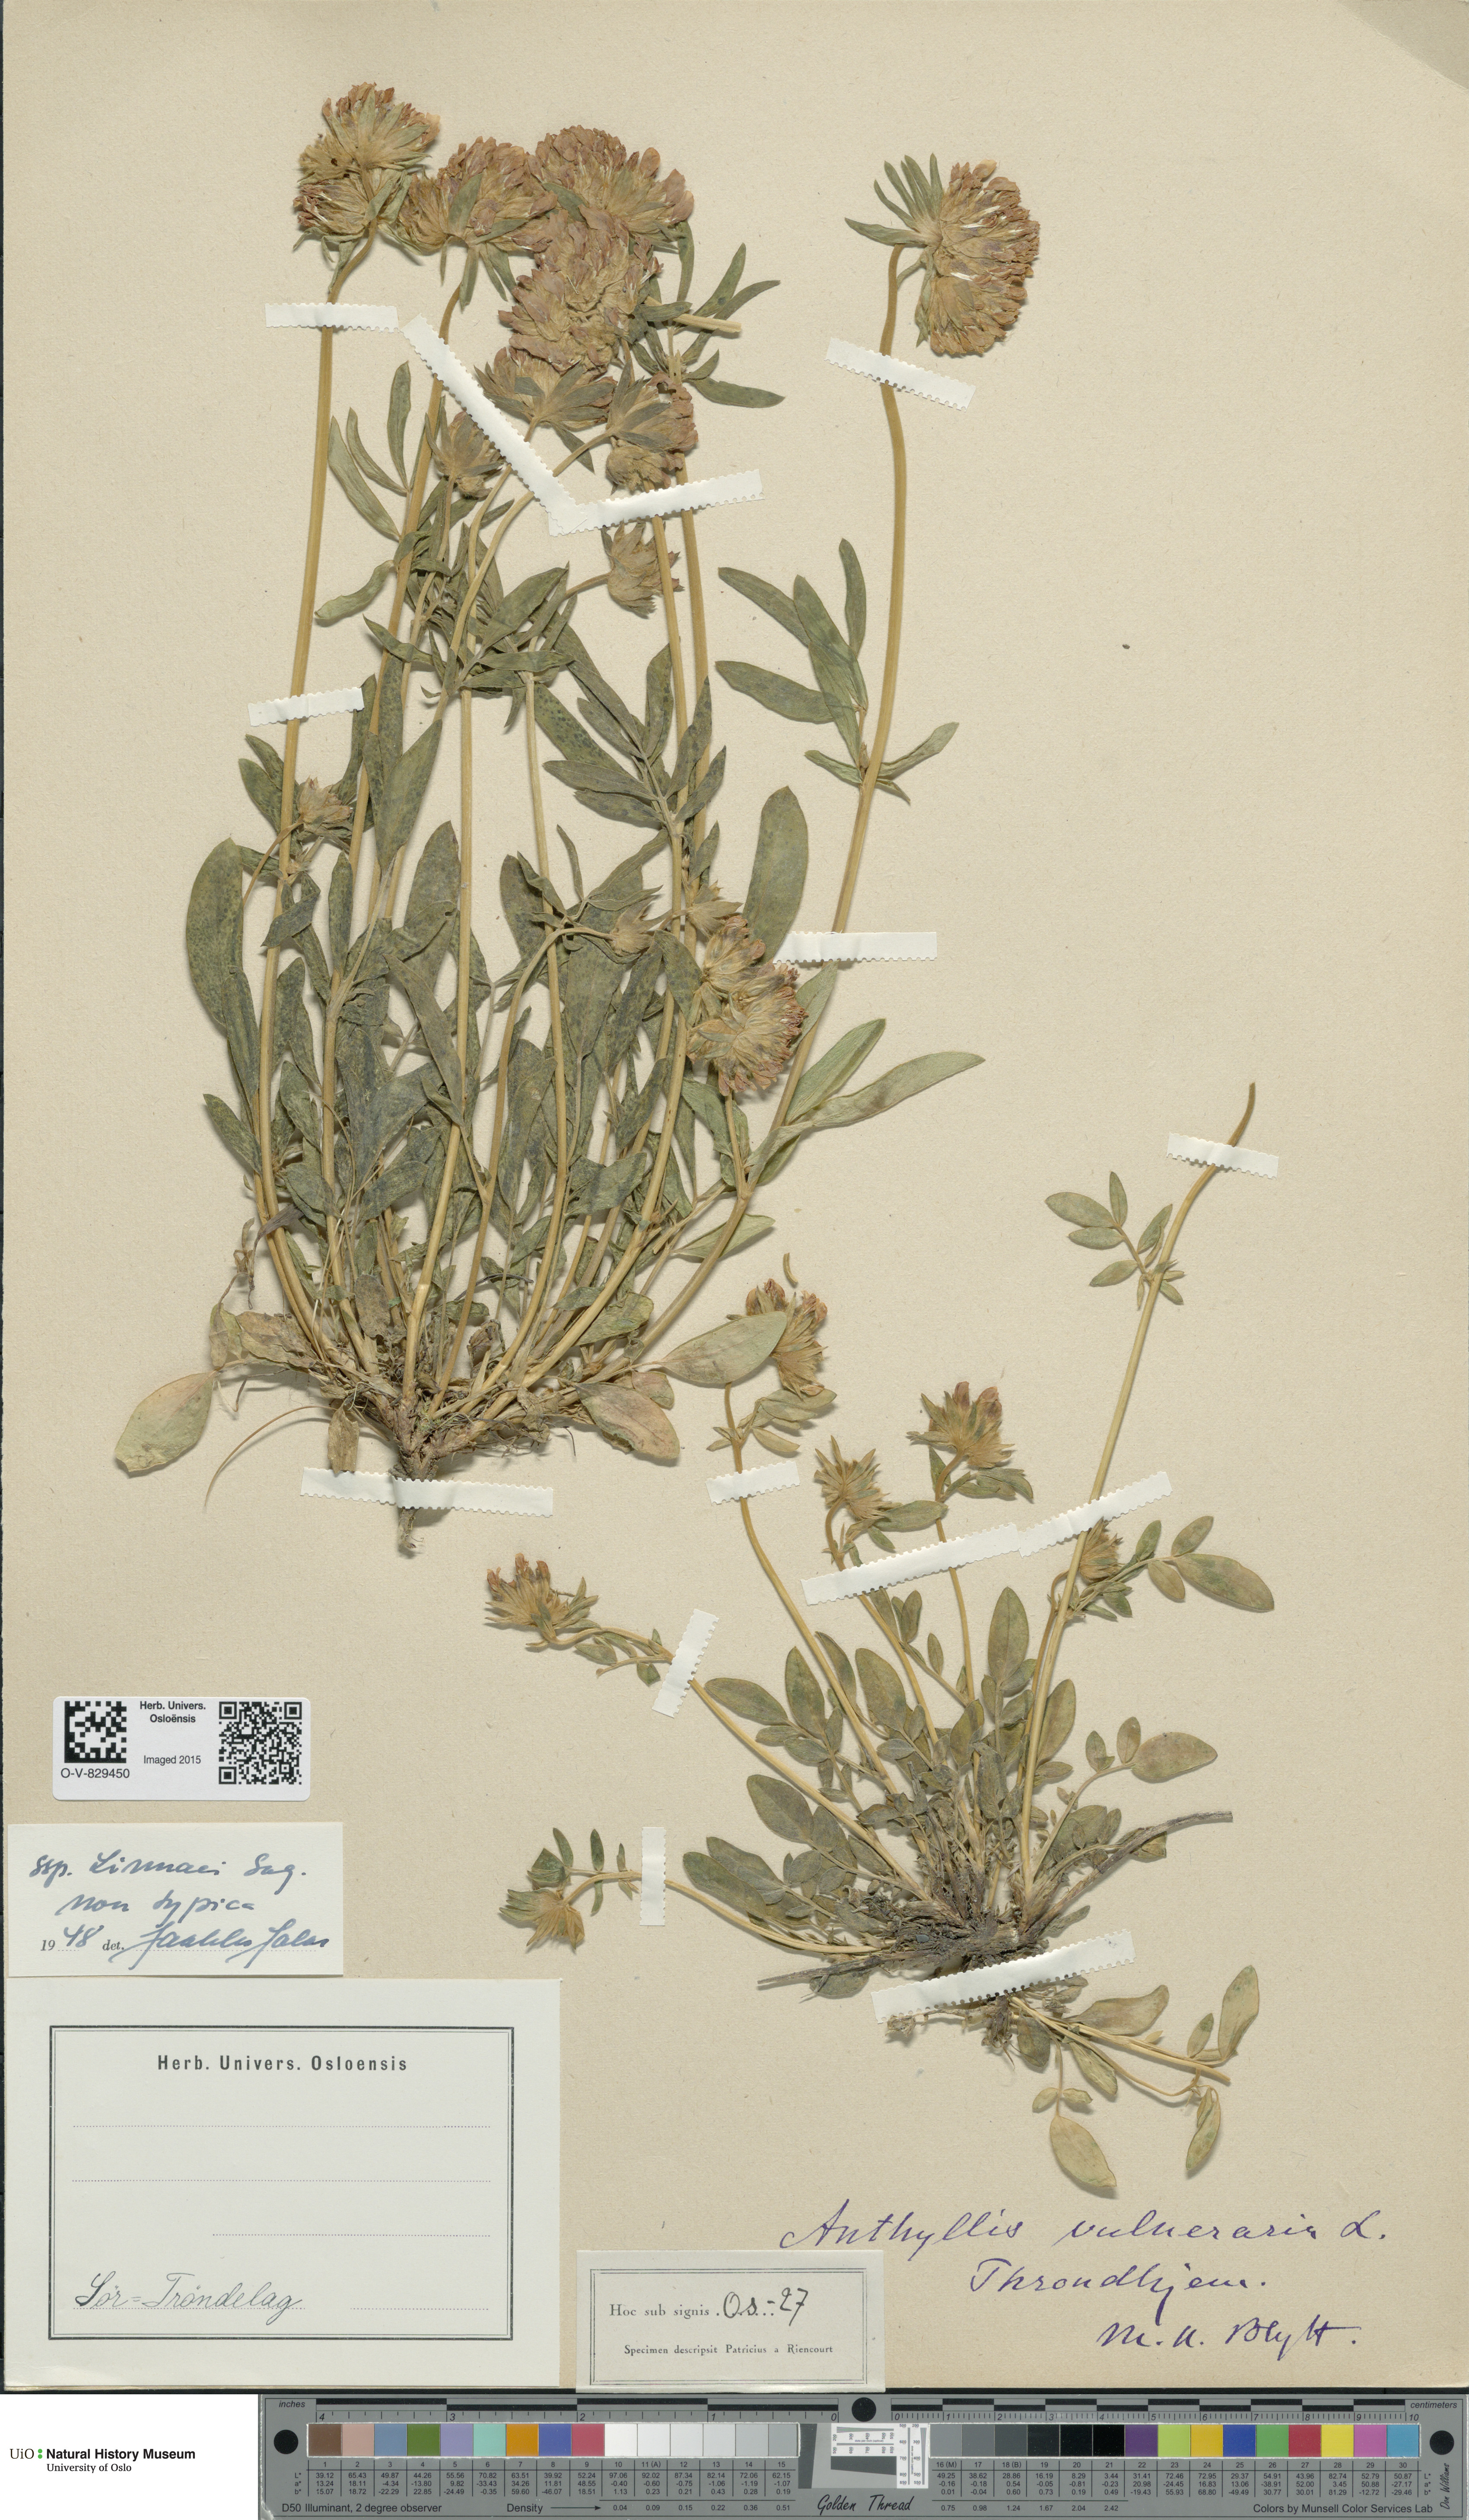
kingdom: Plantae
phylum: Tracheophyta
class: Magnoliopsida
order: Fabales
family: Fabaceae
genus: Anthyllis
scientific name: Anthyllis vulneraria
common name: Kidney vetch
